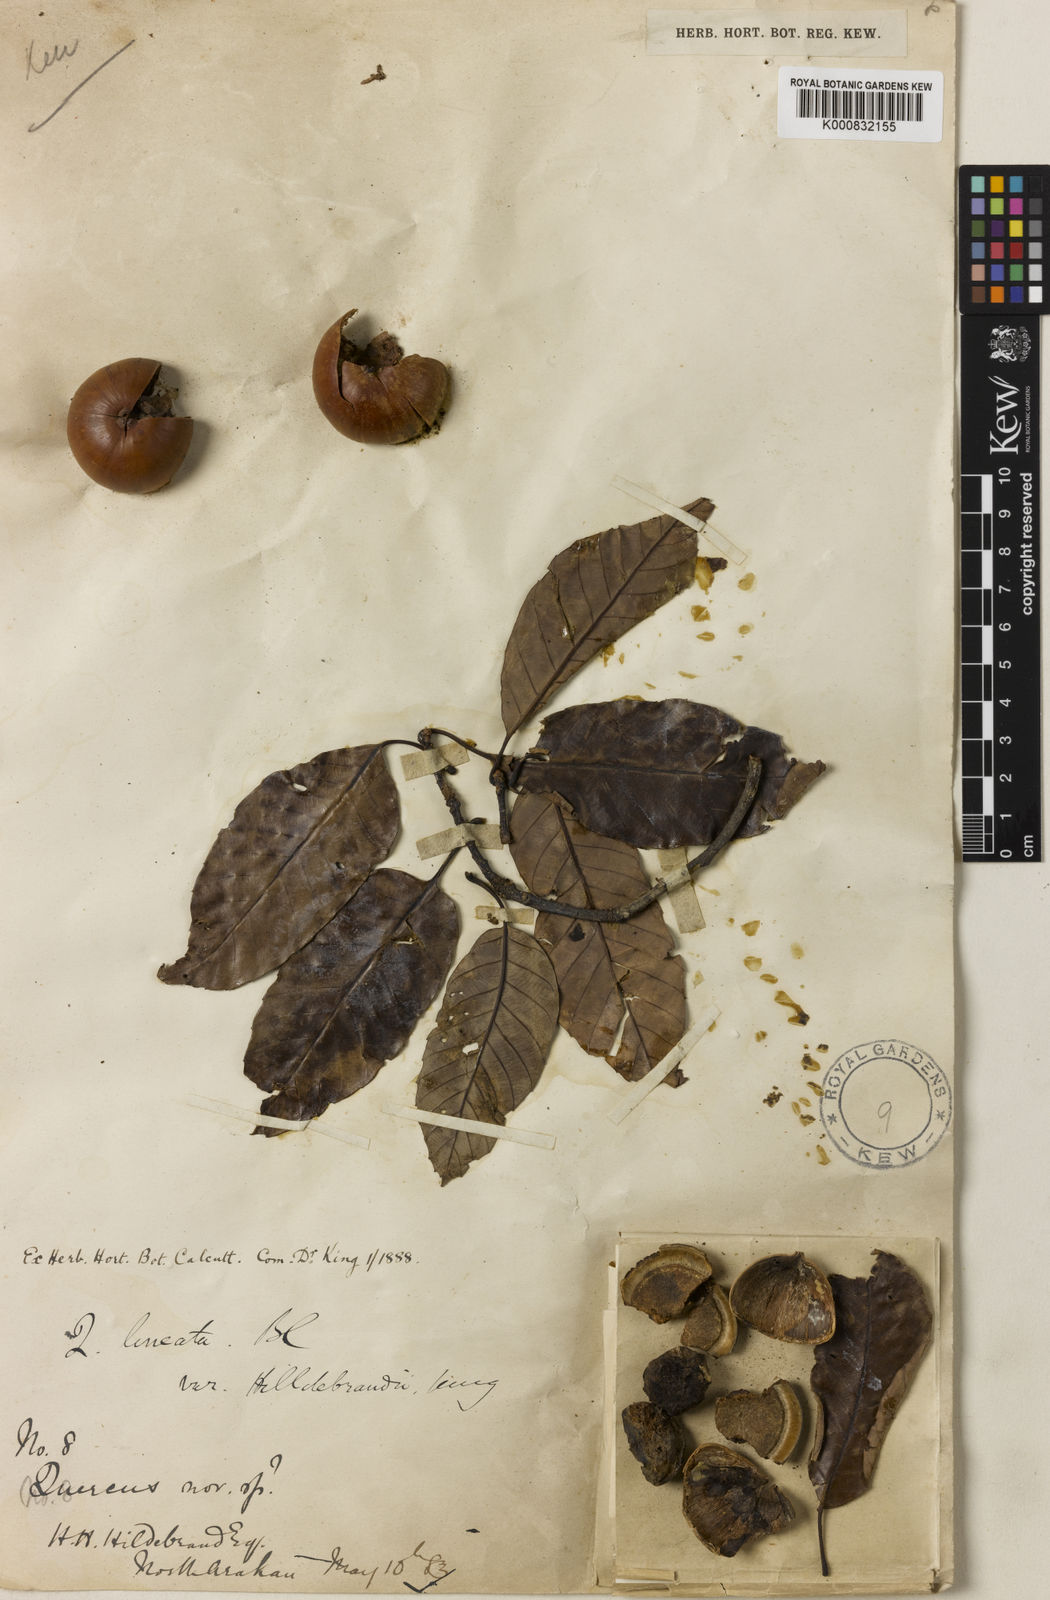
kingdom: Plantae
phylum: Tracheophyta
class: Magnoliopsida
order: Fagales
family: Fagaceae
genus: Quercus
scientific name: Quercus lineata
